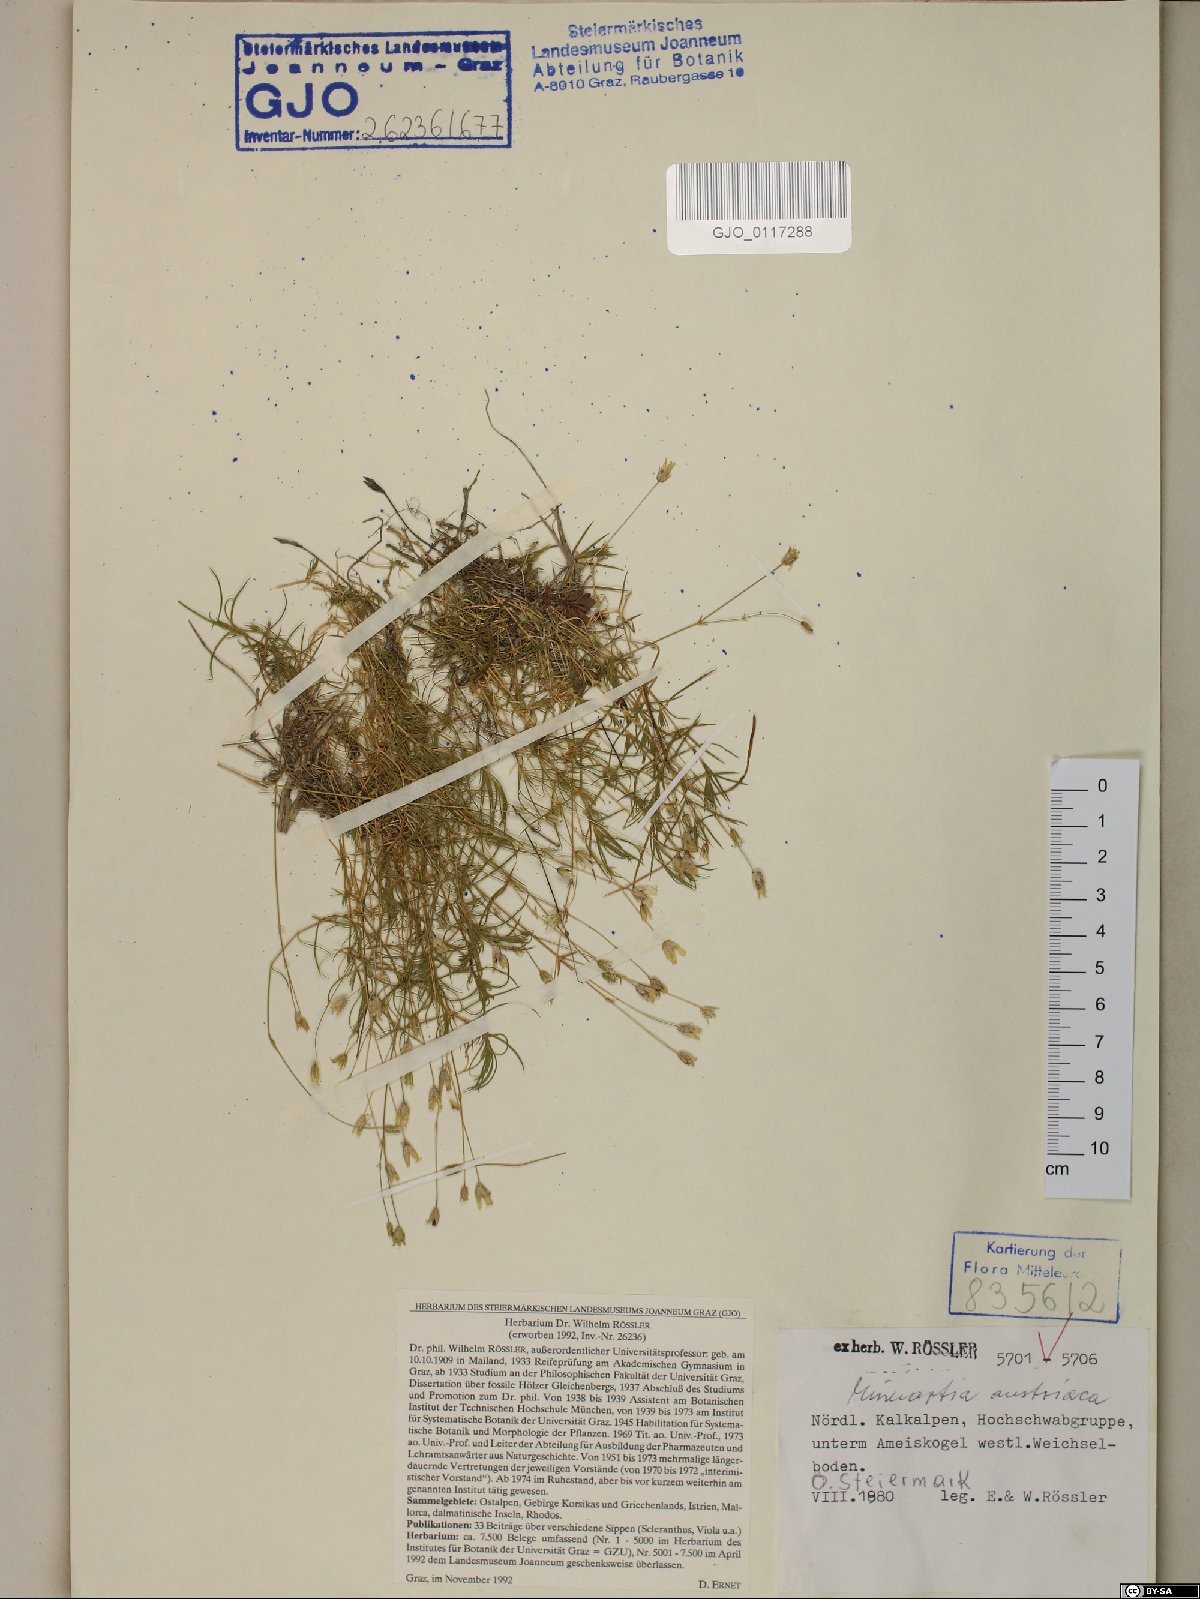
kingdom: Plantae
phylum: Tracheophyta
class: Magnoliopsida
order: Caryophyllales
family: Caryophyllaceae
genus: Sabulina
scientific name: Sabulina austriaca
